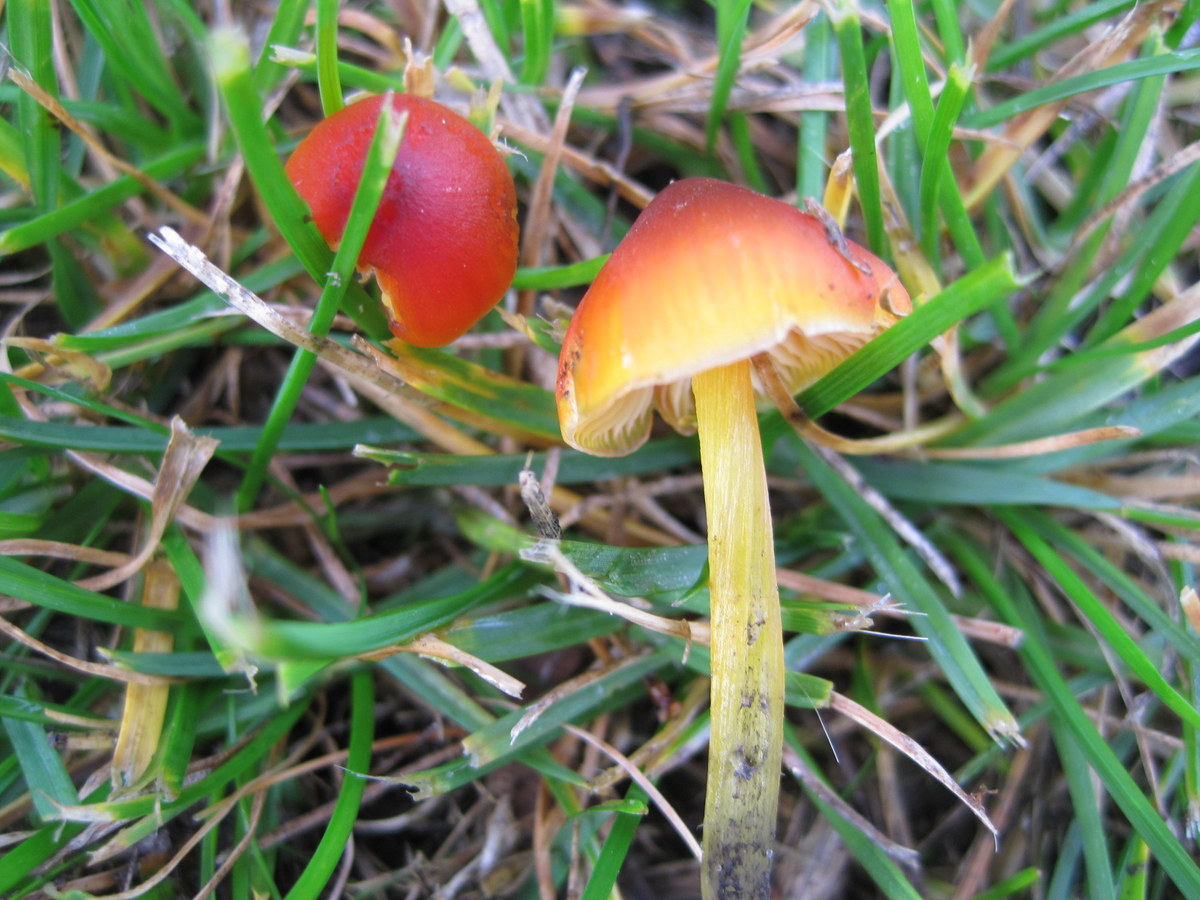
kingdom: Fungi
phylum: Basidiomycota
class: Agaricomycetes
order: Agaricales
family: Hygrophoraceae
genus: Hygrocybe
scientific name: Hygrocybe conica
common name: kegle-vokshat
